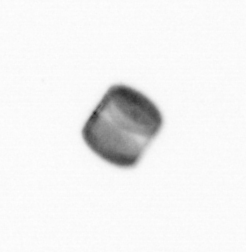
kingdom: Chromista
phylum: Ochrophyta
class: Bacillariophyceae
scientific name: Bacillariophyceae
